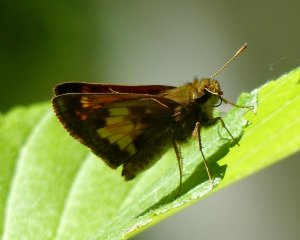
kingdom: Animalia
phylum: Arthropoda
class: Insecta
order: Lepidoptera
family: Hesperiidae
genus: Lon
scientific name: Lon hobomok
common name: Hobomok Skipper
